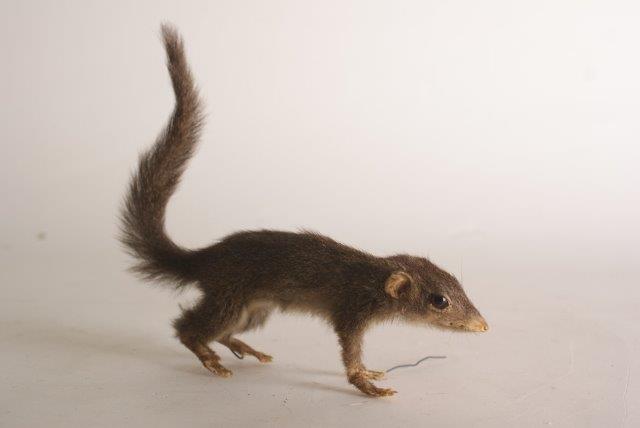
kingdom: Animalia
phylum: Chordata
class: Mammalia
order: Scandentia
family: Tupaiidae
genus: Tupaia
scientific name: Tupaia glis
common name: Common Treeshrew
